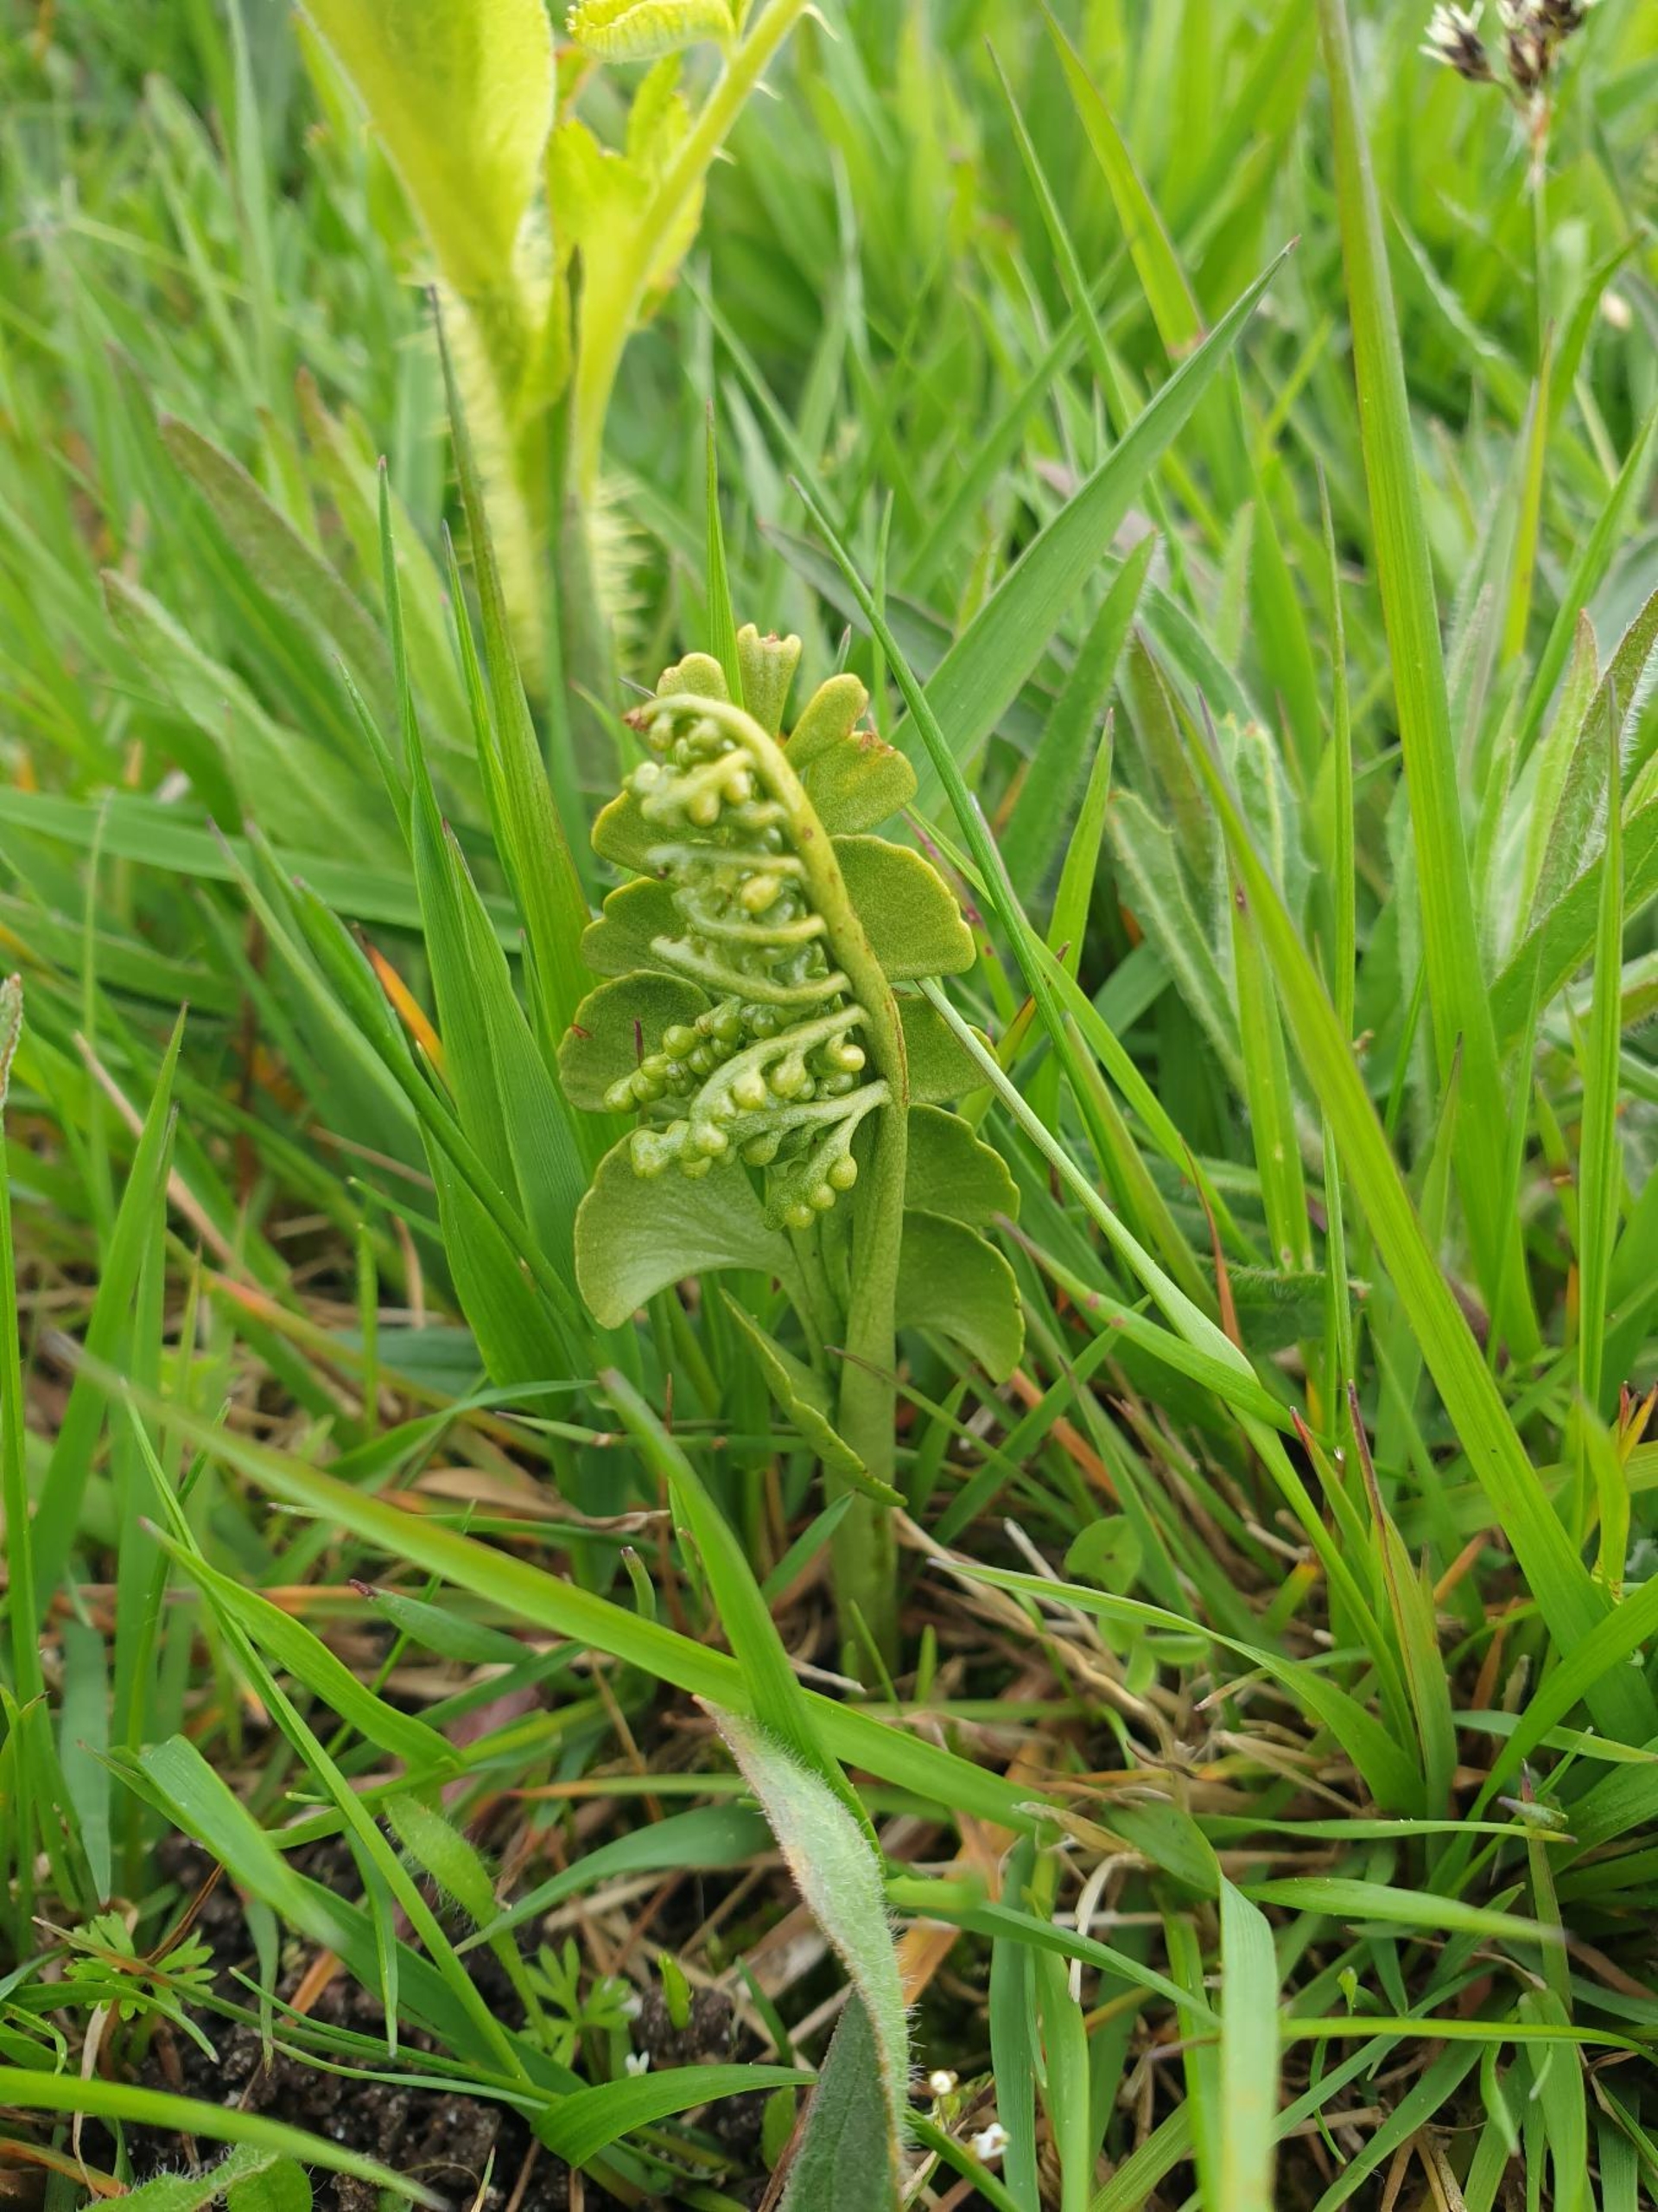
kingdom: Plantae
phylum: Tracheophyta
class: Polypodiopsida
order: Ophioglossales
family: Ophioglossaceae
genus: Botrychium
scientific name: Botrychium lunaria
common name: Almindelig månerude
